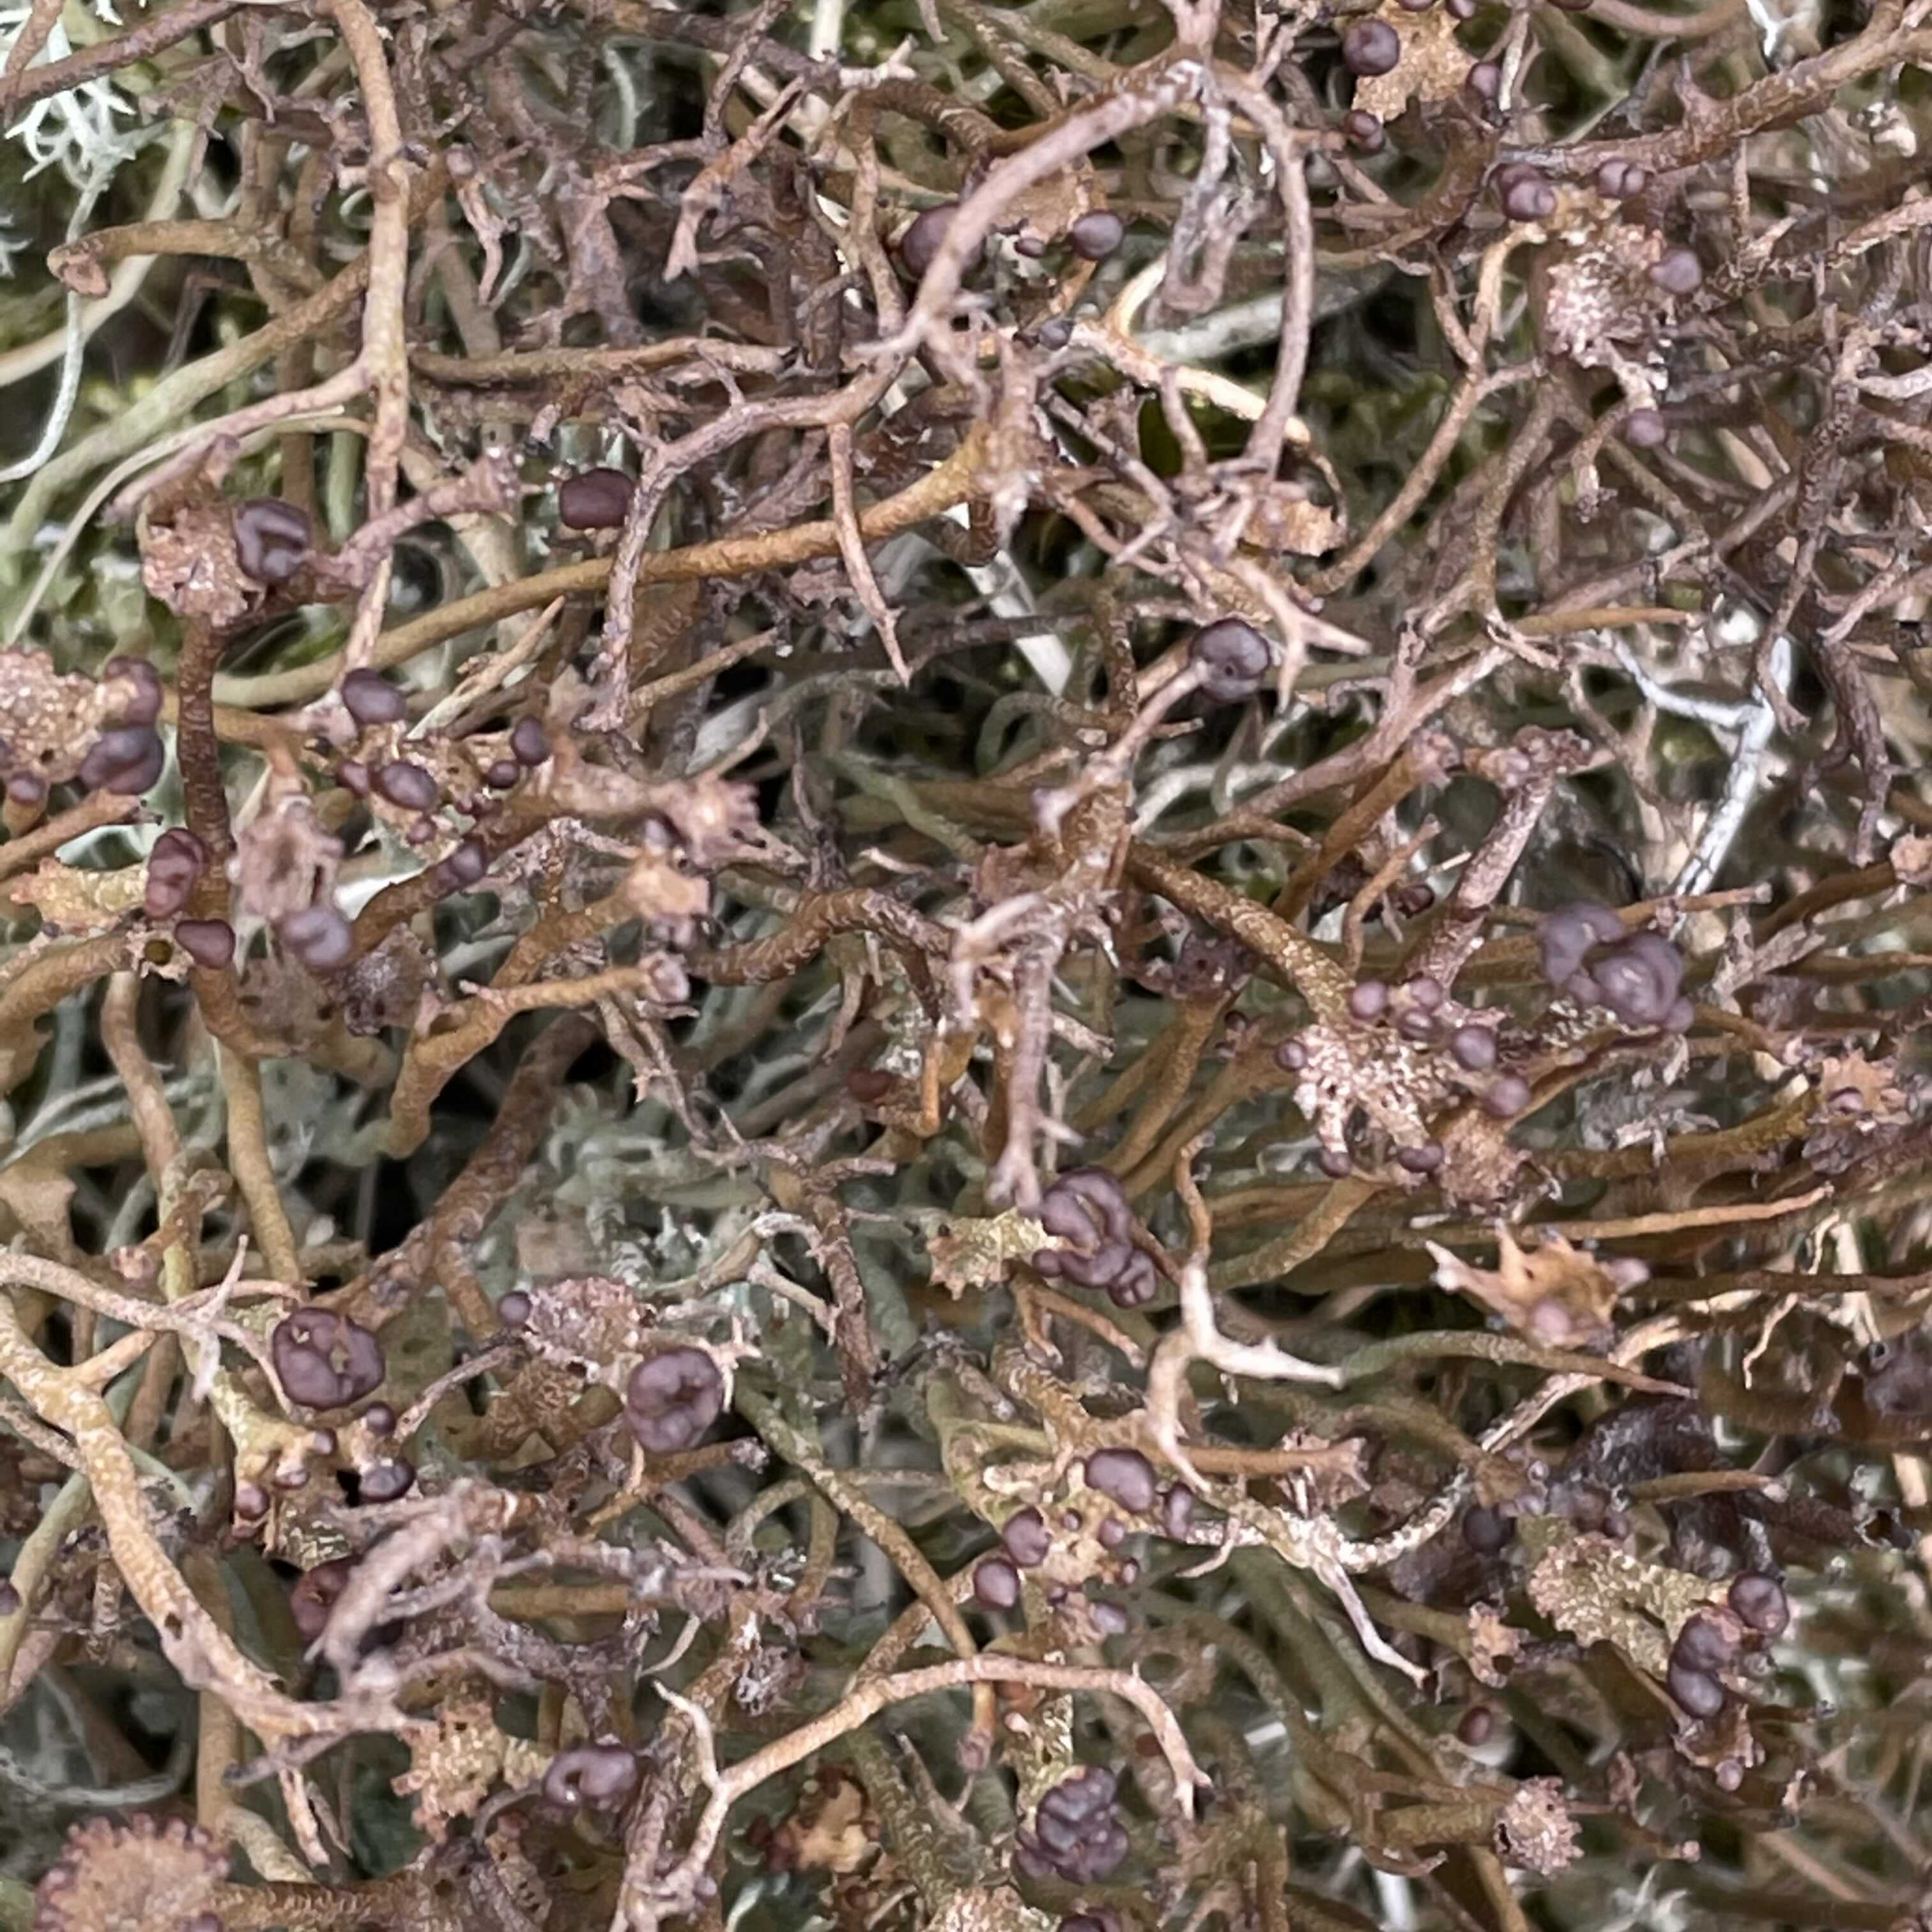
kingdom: Fungi
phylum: Ascomycota
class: Lecanoromycetes
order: Lecanorales
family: Cladoniaceae
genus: Cladonia
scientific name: Cladonia gracilis
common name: slank bægerlav
